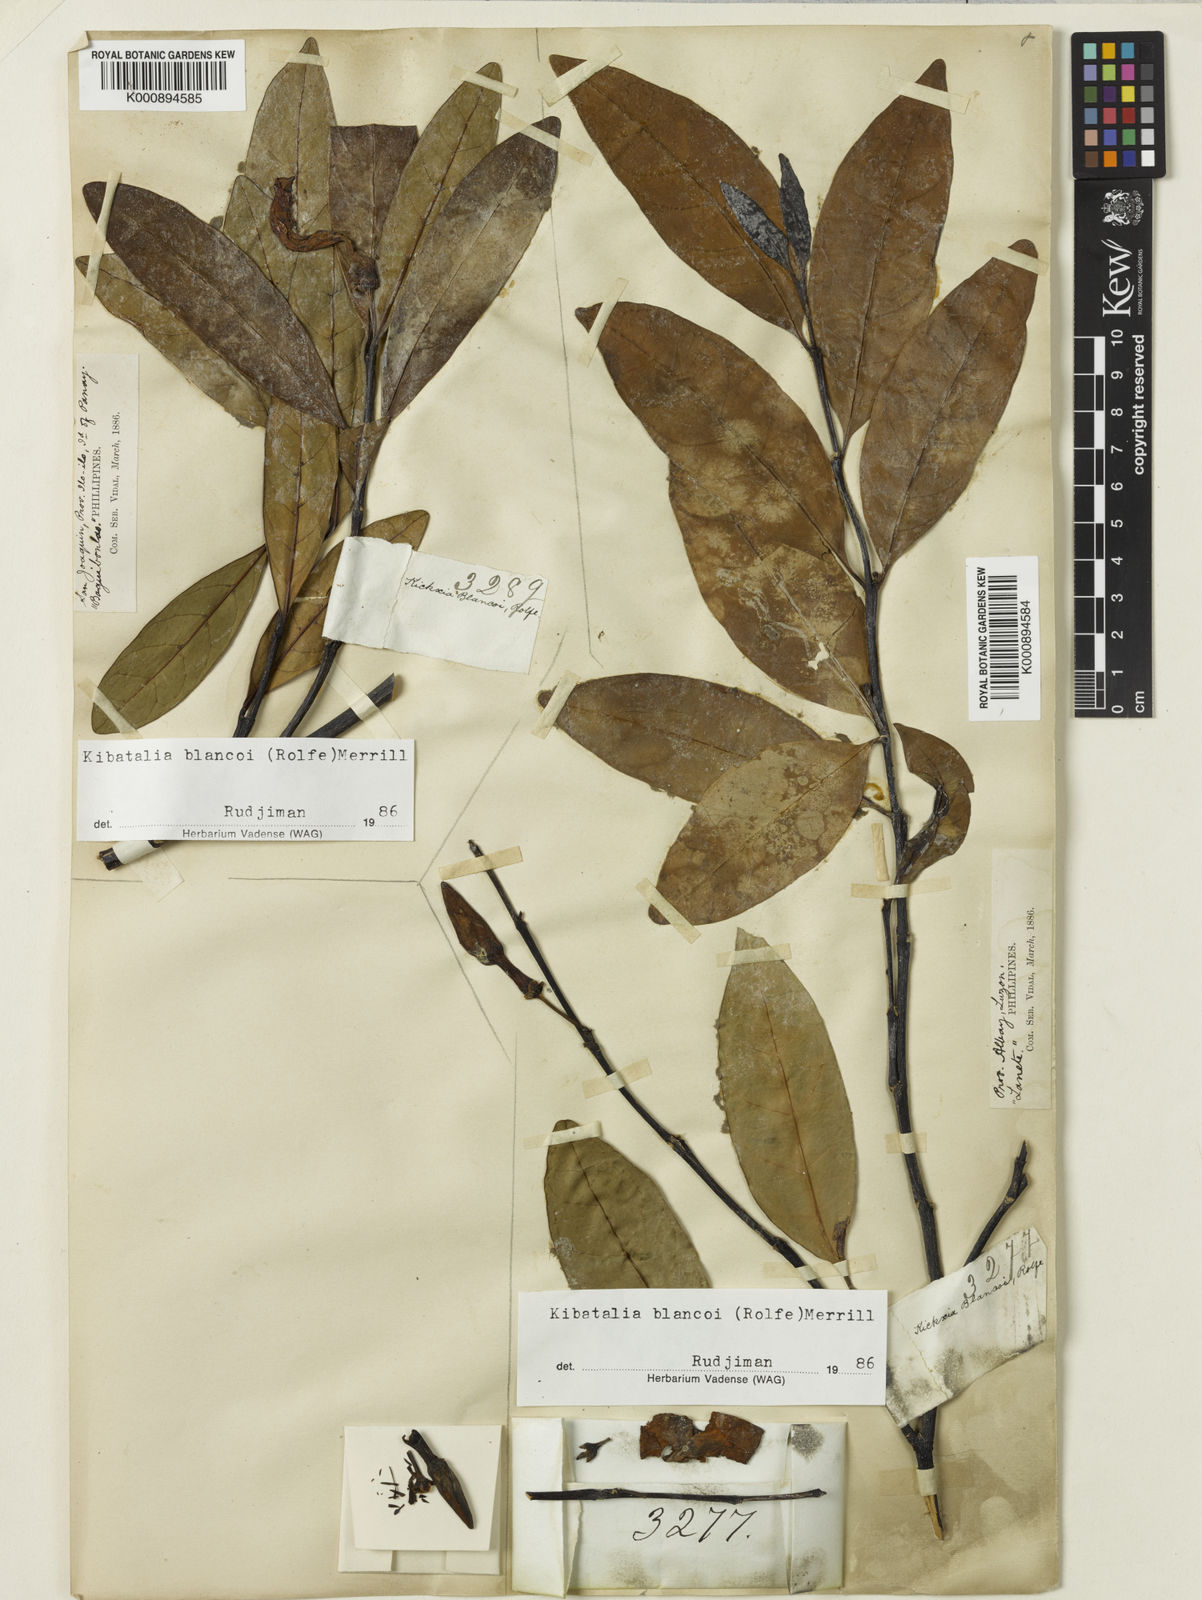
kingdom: Plantae
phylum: Tracheophyta
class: Magnoliopsida
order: Gentianales
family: Apocynaceae
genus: Kibatalia
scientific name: Kibatalia blancoi
